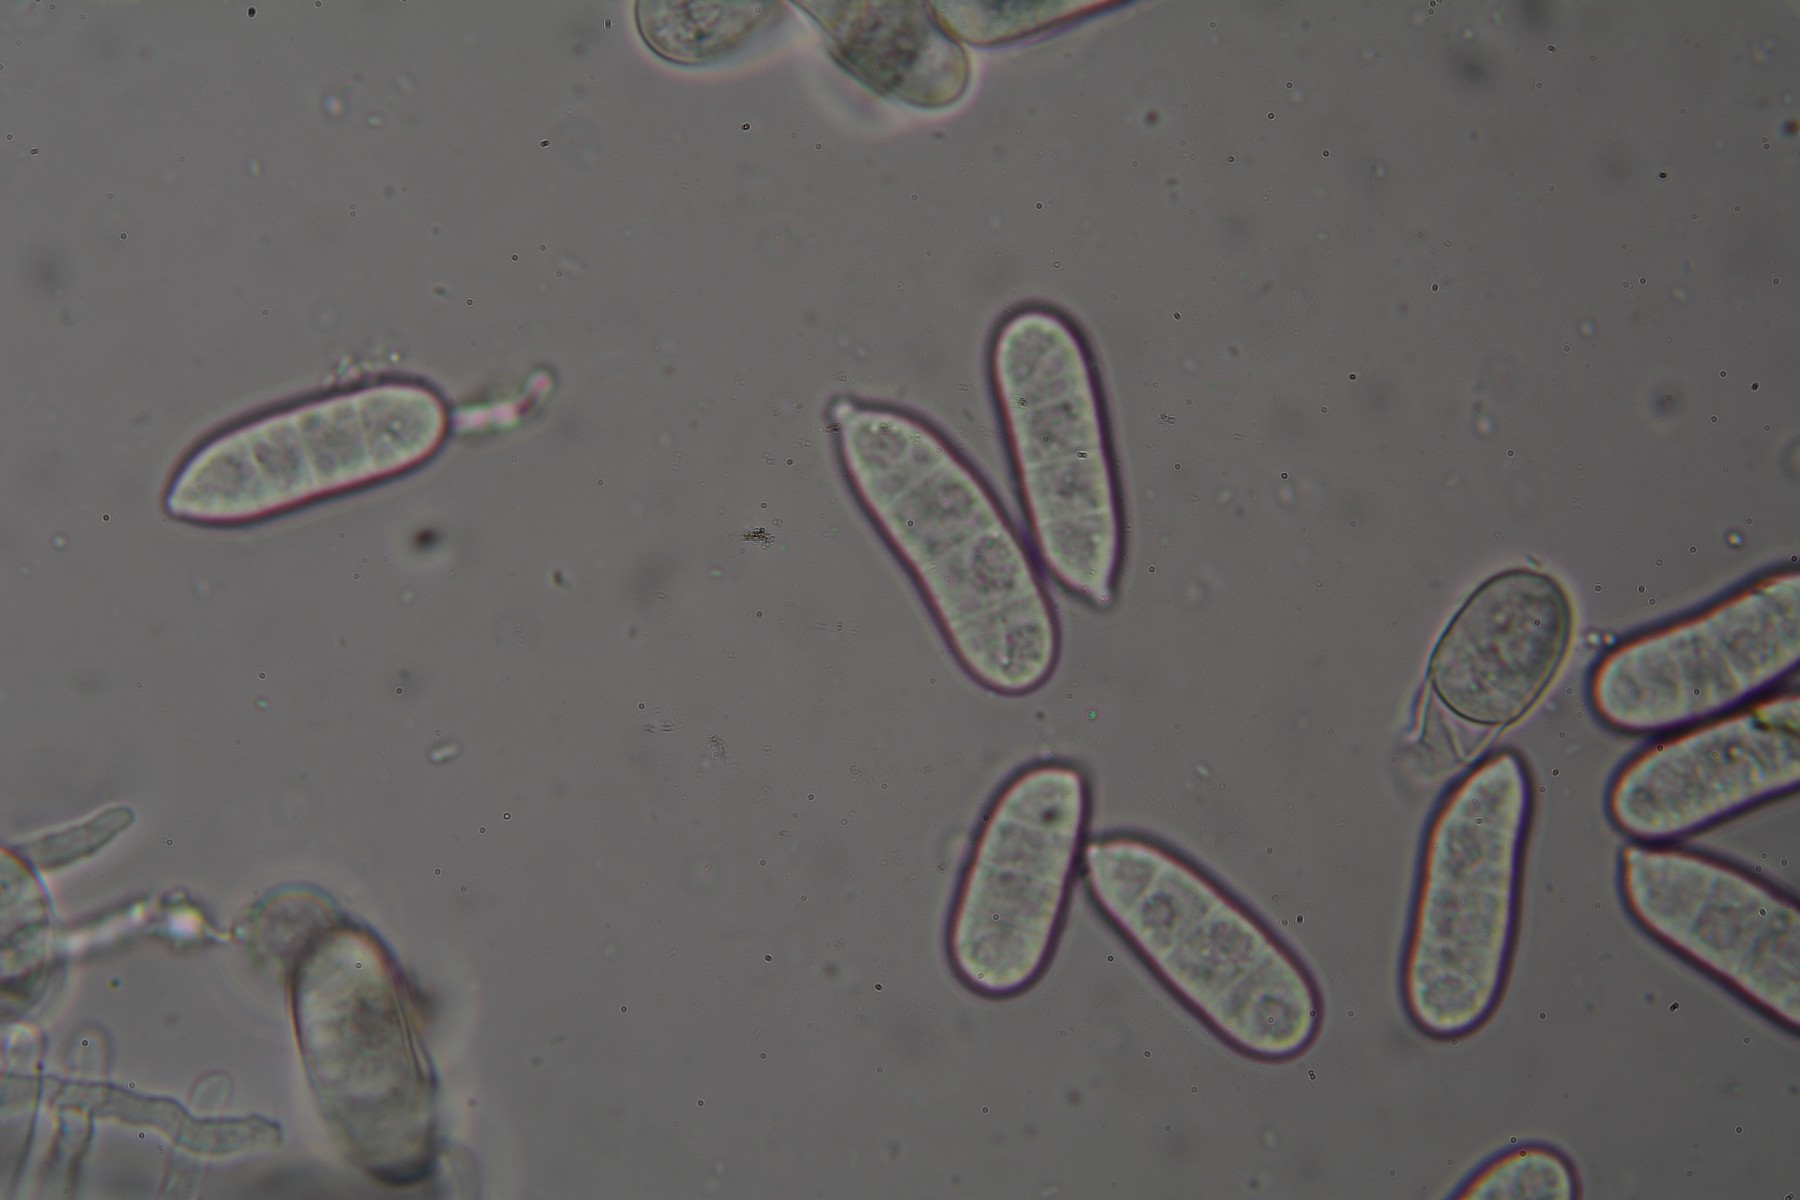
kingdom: Fungi
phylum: Ascomycota
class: Sordariomycetes
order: Hypocreales
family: Hypocreaceae
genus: Hypomyces
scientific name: Hypomyces rosellus
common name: rosa snylteskorpe
